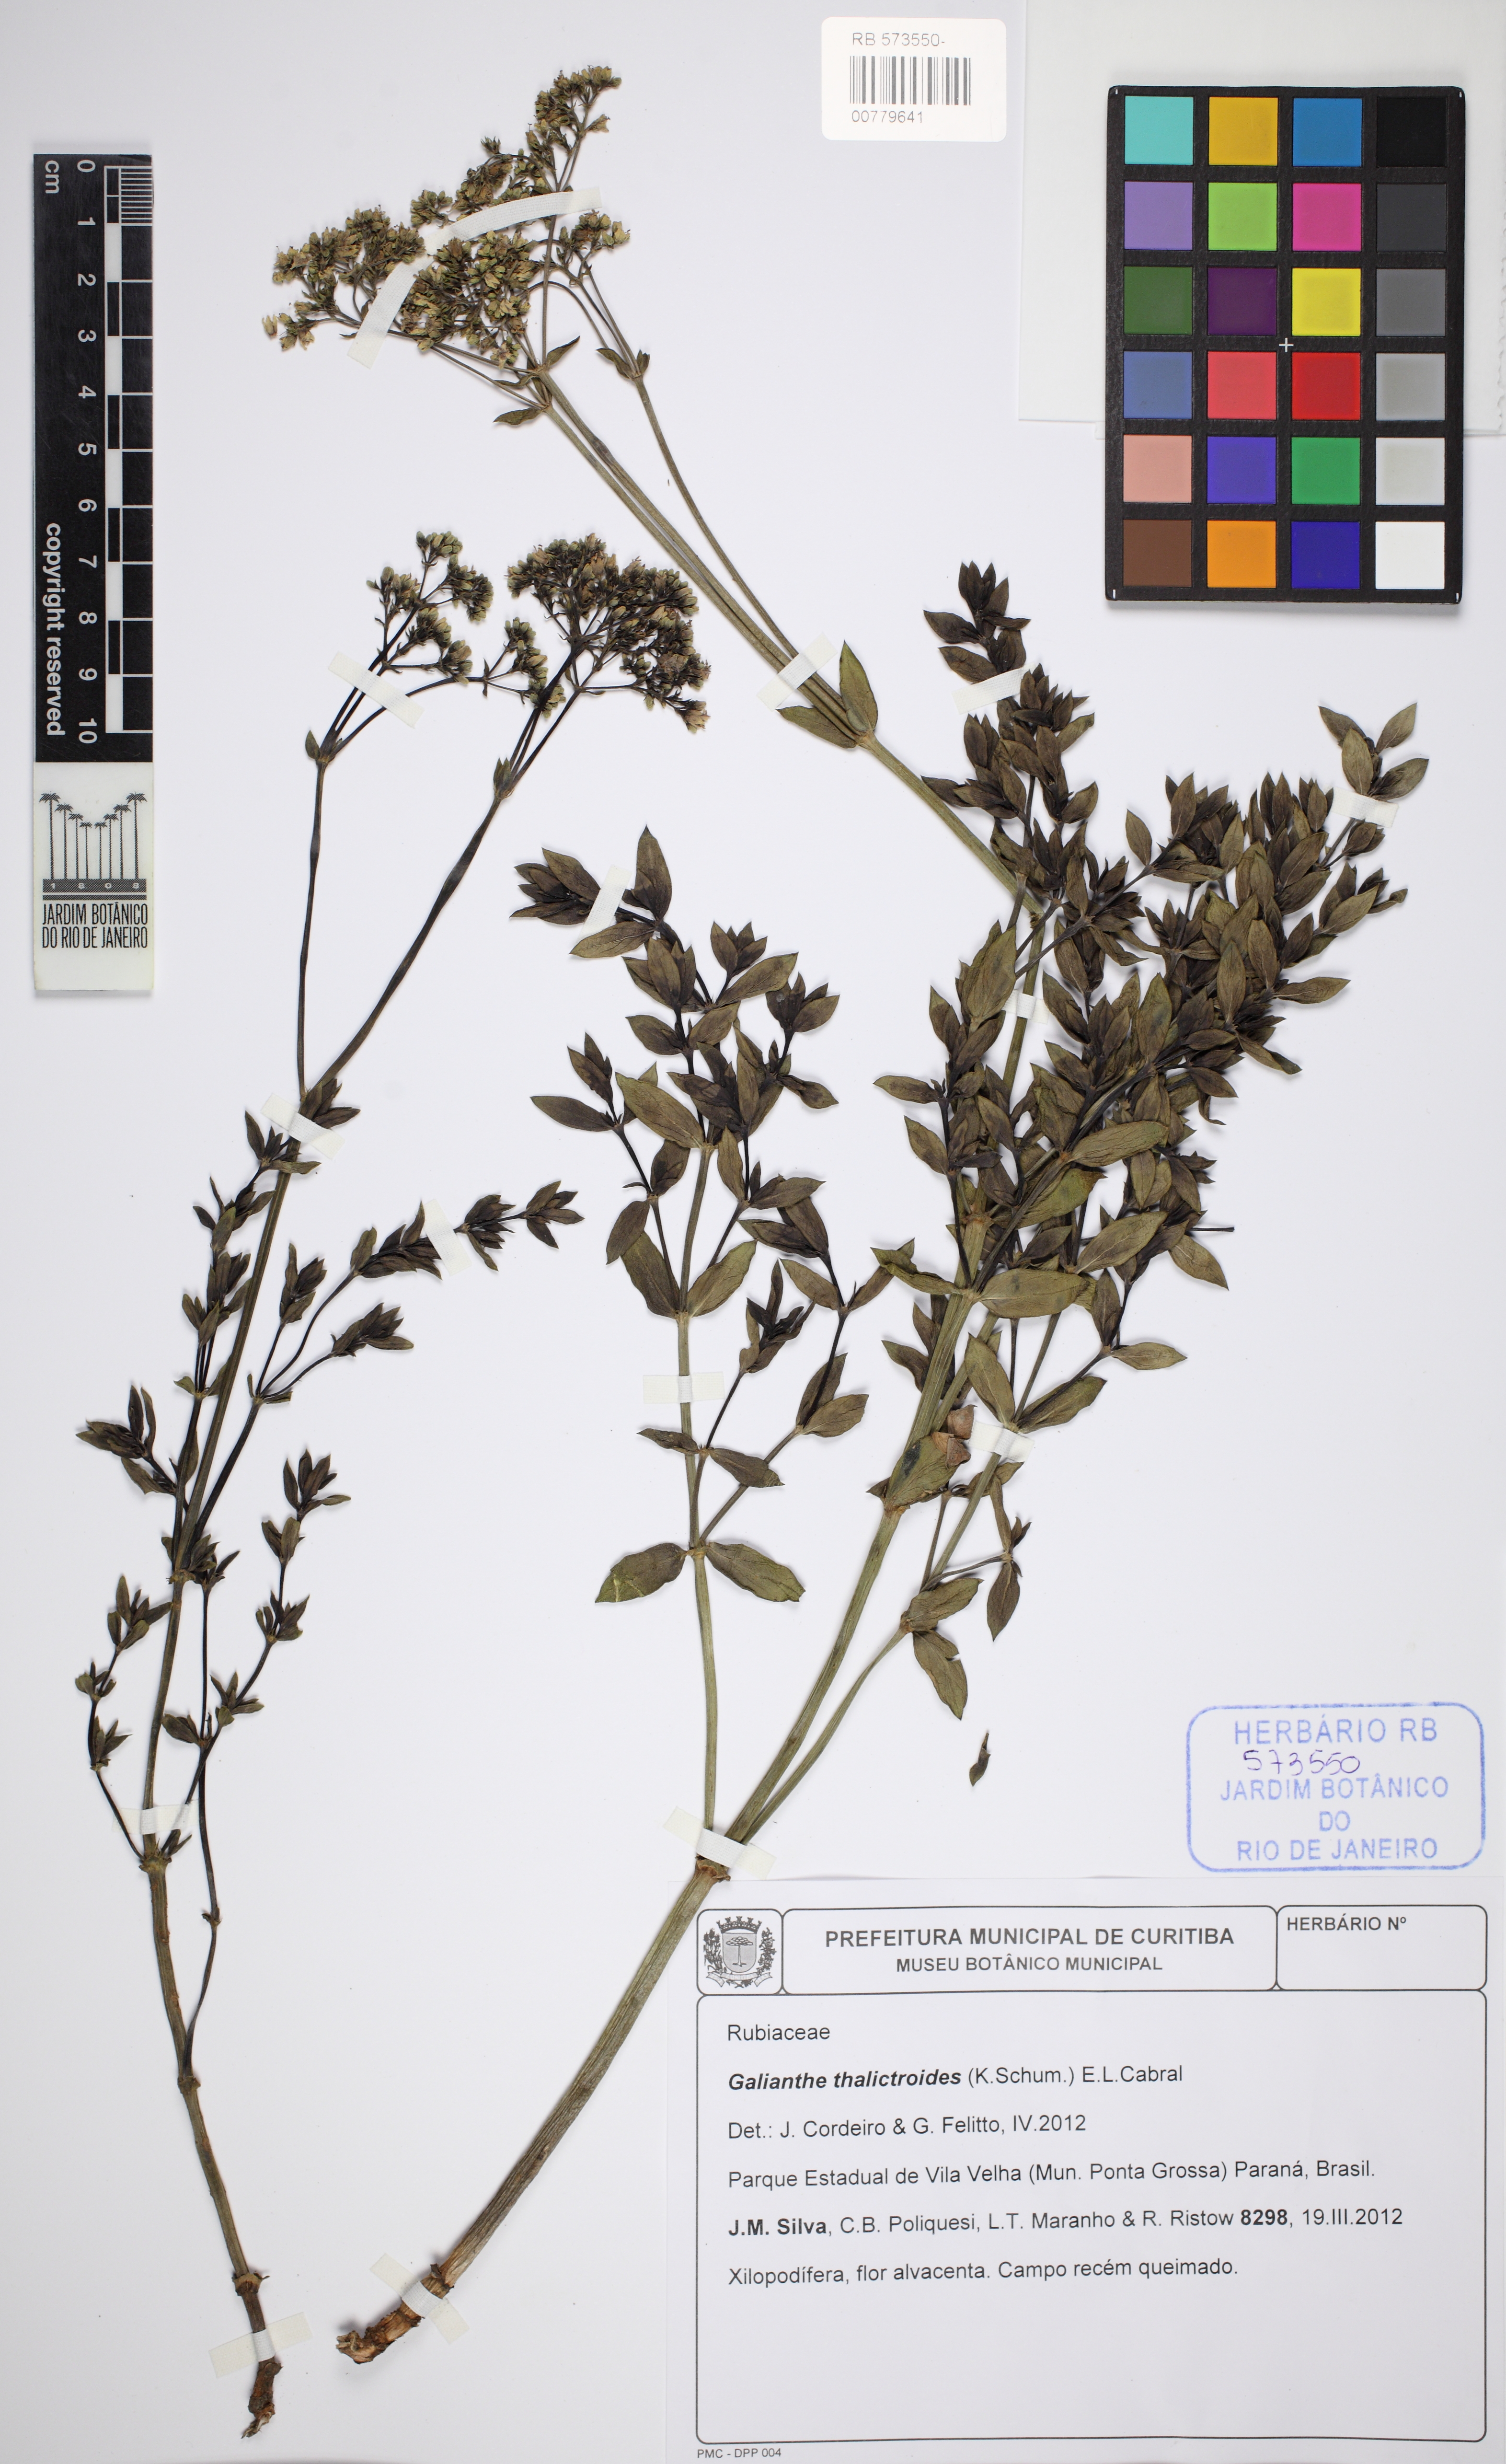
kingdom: Plantae
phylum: Tracheophyta
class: Magnoliopsida
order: Gentianales
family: Rubiaceae
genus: Galianthe
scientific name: Galianthe elegans
